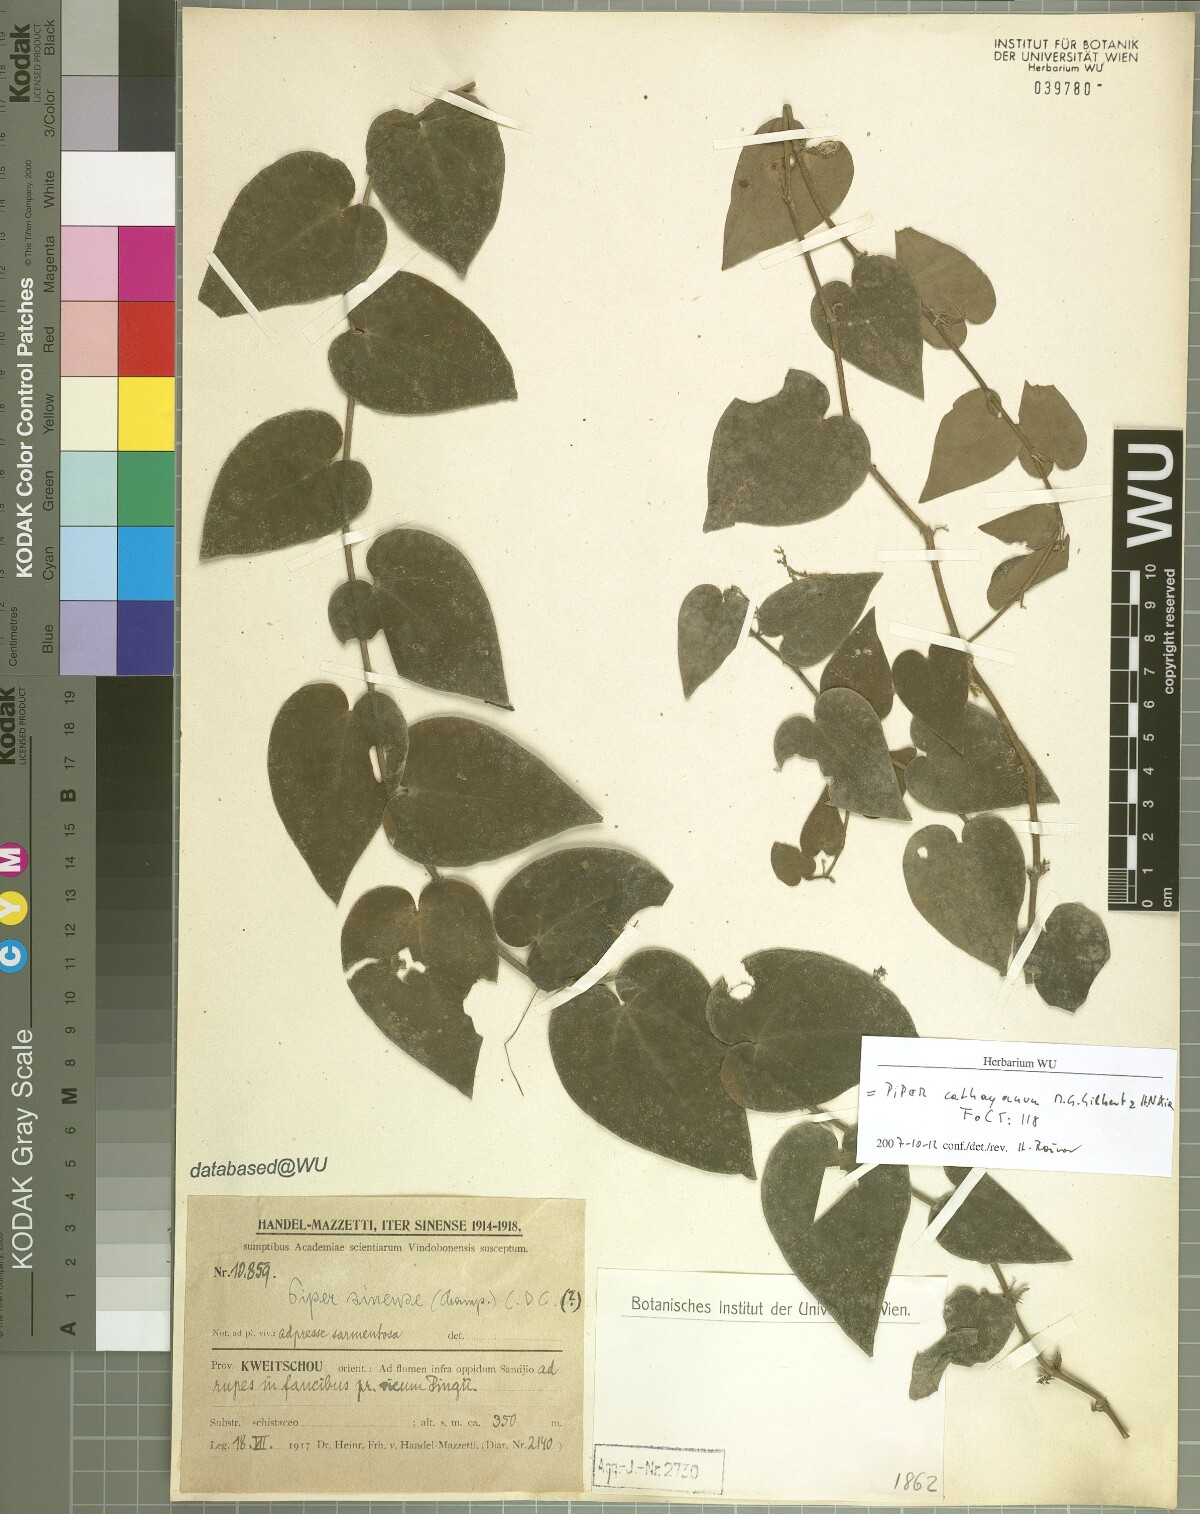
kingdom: Plantae
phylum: Tracheophyta
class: Magnoliopsida
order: Piperales
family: Piperaceae
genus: Piper
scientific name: Piper cathayanum
